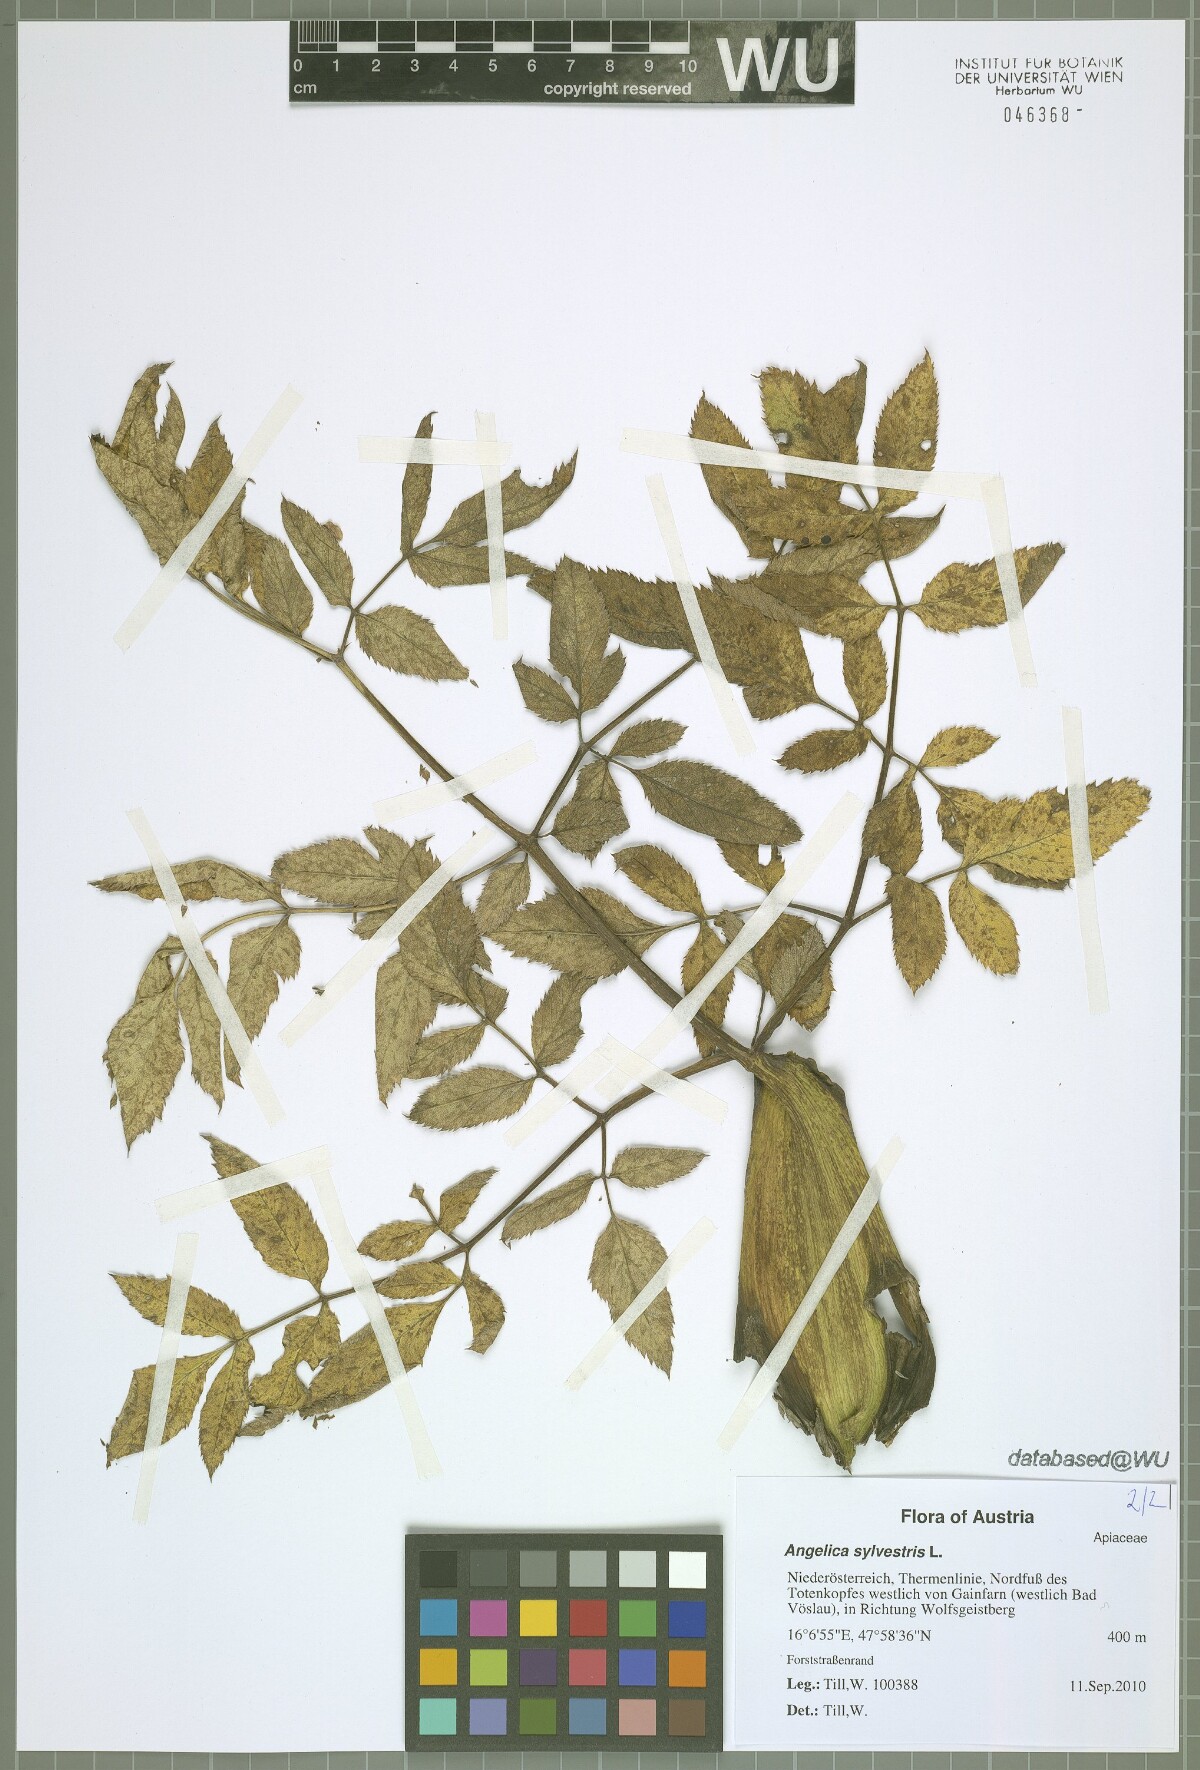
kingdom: Plantae
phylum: Tracheophyta
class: Magnoliopsida
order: Apiales
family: Apiaceae
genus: Angelica
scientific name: Angelica sylvestris
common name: Wild angelica
